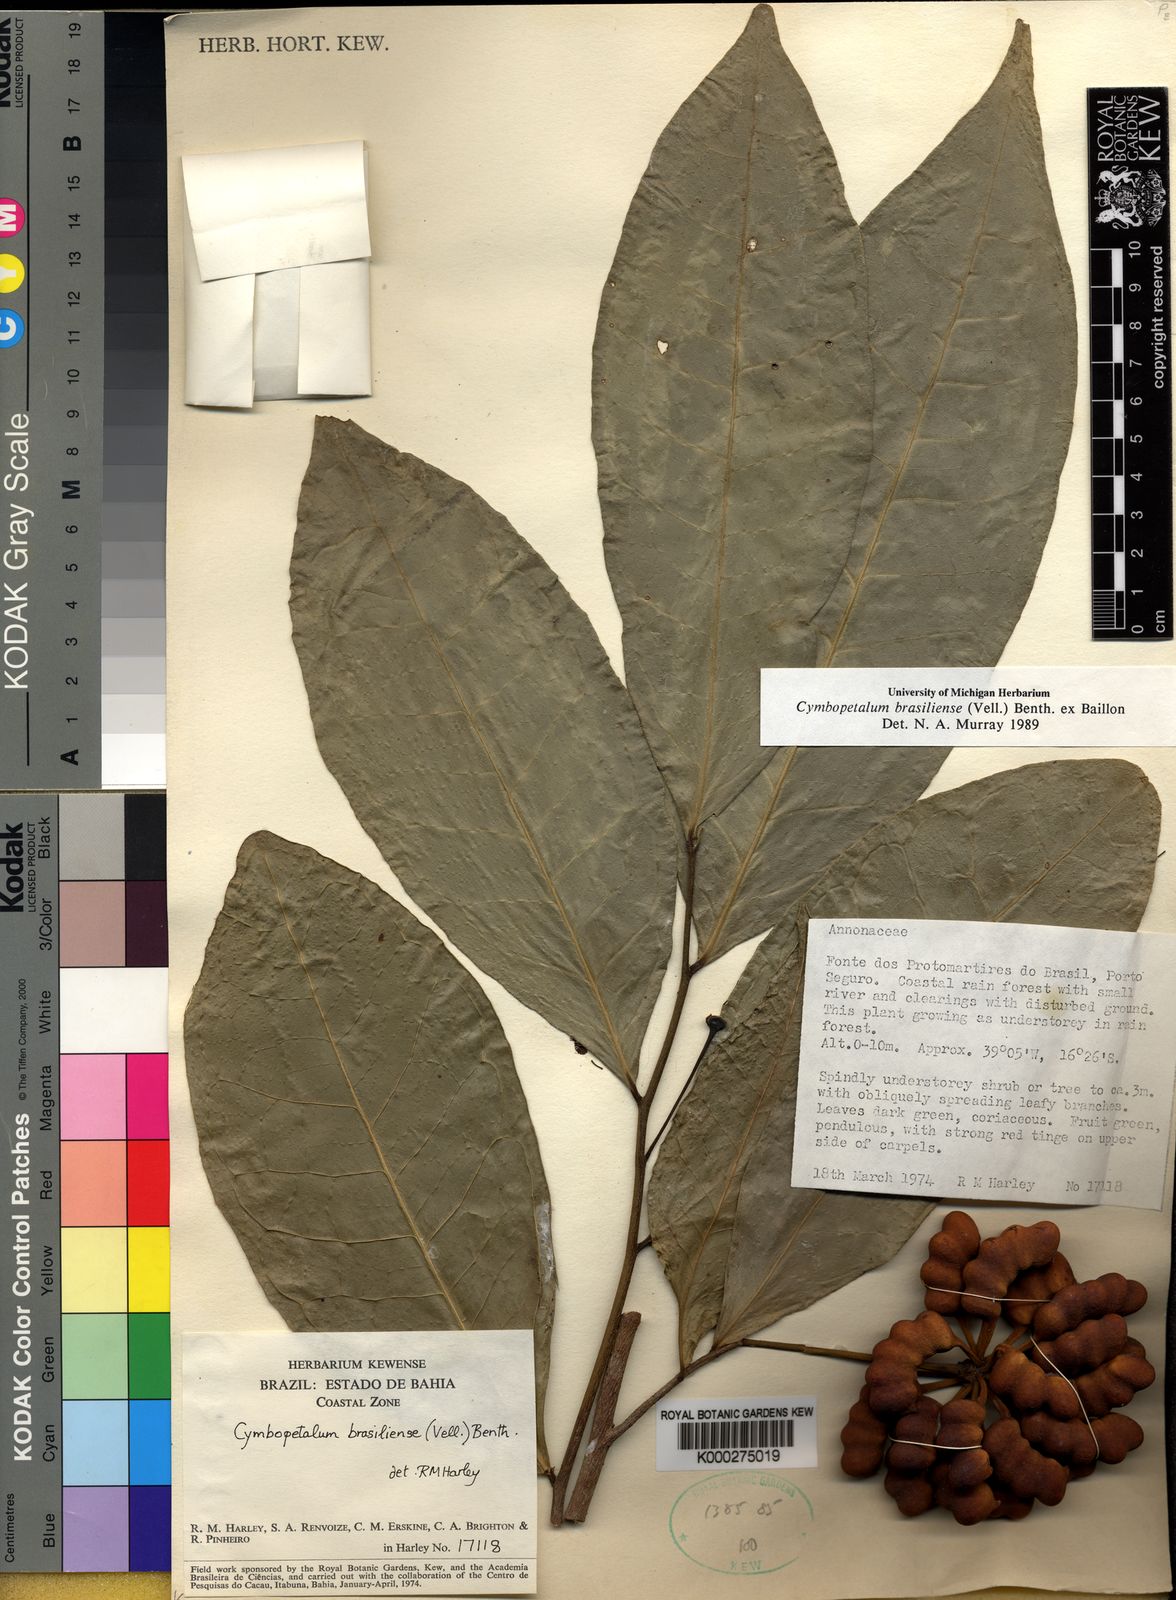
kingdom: Plantae
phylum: Tracheophyta
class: Magnoliopsida
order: Magnoliales
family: Annonaceae
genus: Cymbopetalum
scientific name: Cymbopetalum brasiliense
